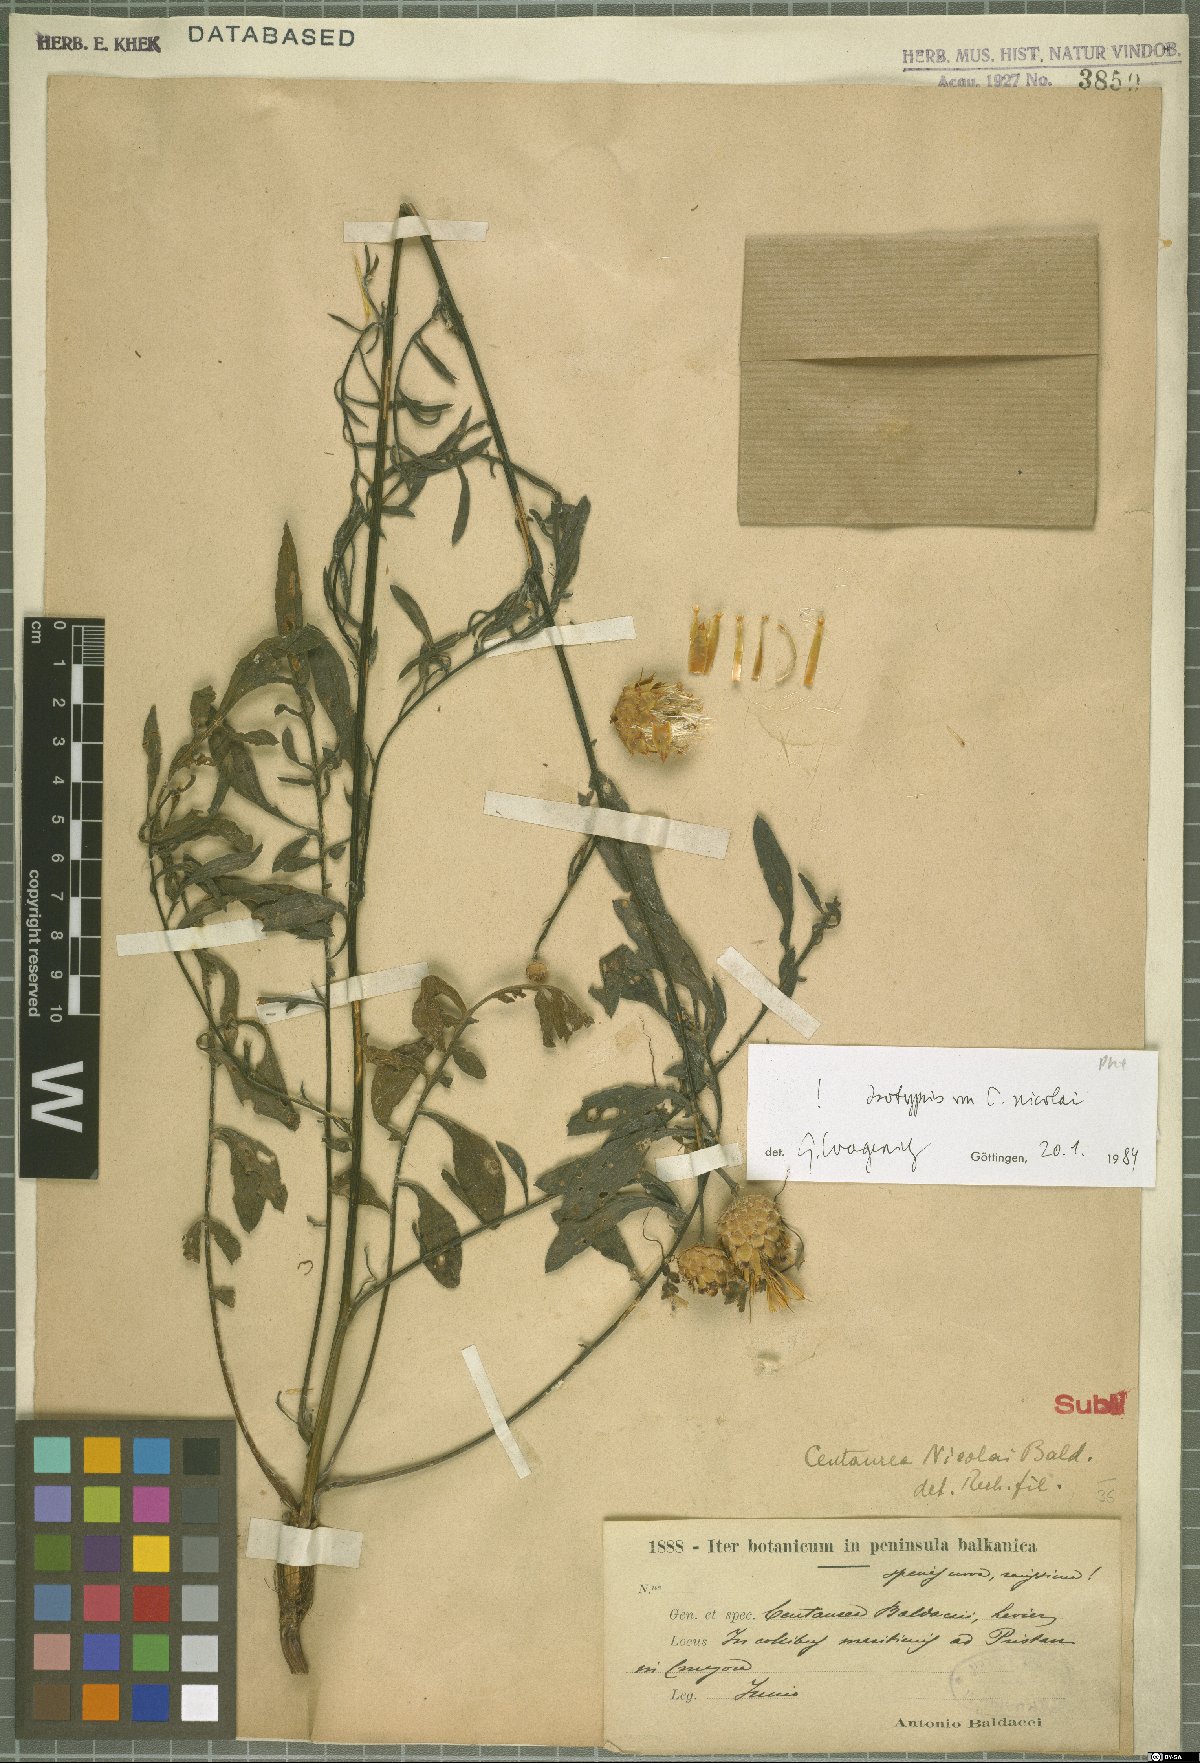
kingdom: Plantae
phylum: Tracheophyta
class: Magnoliopsida
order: Asterales
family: Asteraceae
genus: Centaurea
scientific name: Centaurea nicolai
